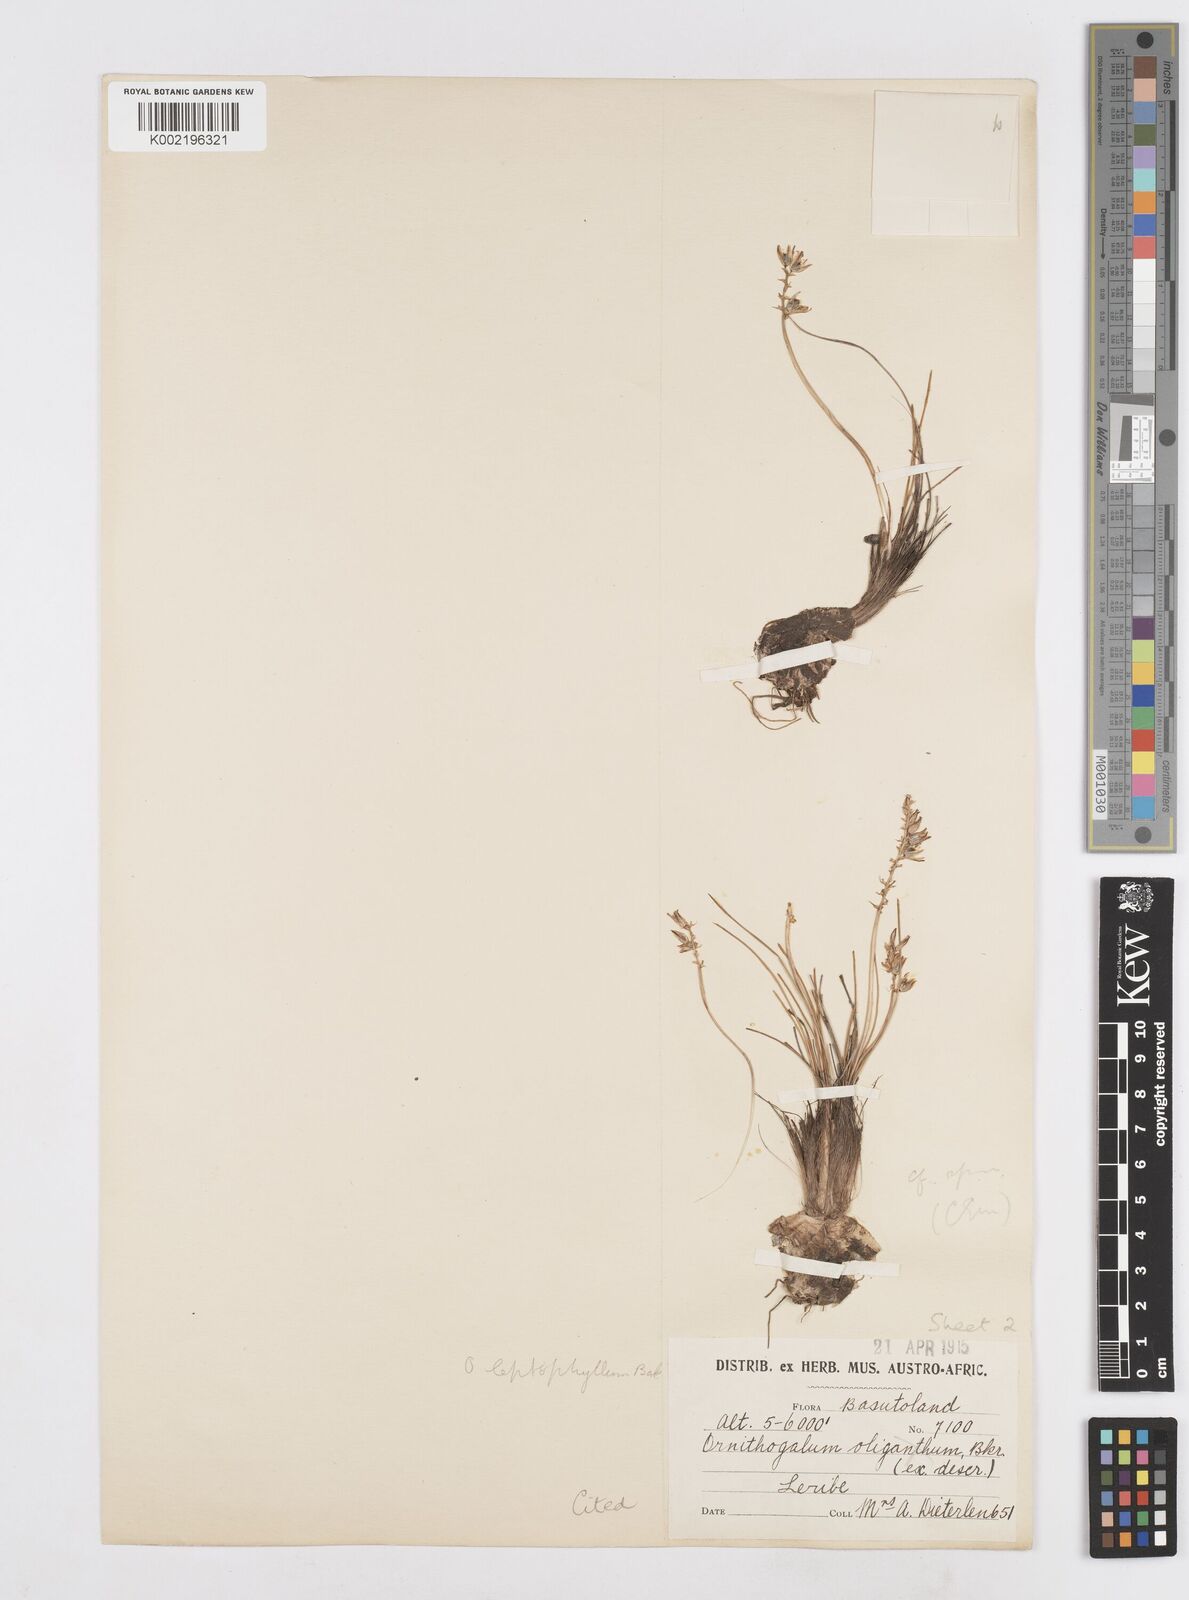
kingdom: Plantae
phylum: Tracheophyta
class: Liliopsida
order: Asparagales
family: Asparagaceae
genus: Ornithogalum
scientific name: Ornithogalum juncifolium
